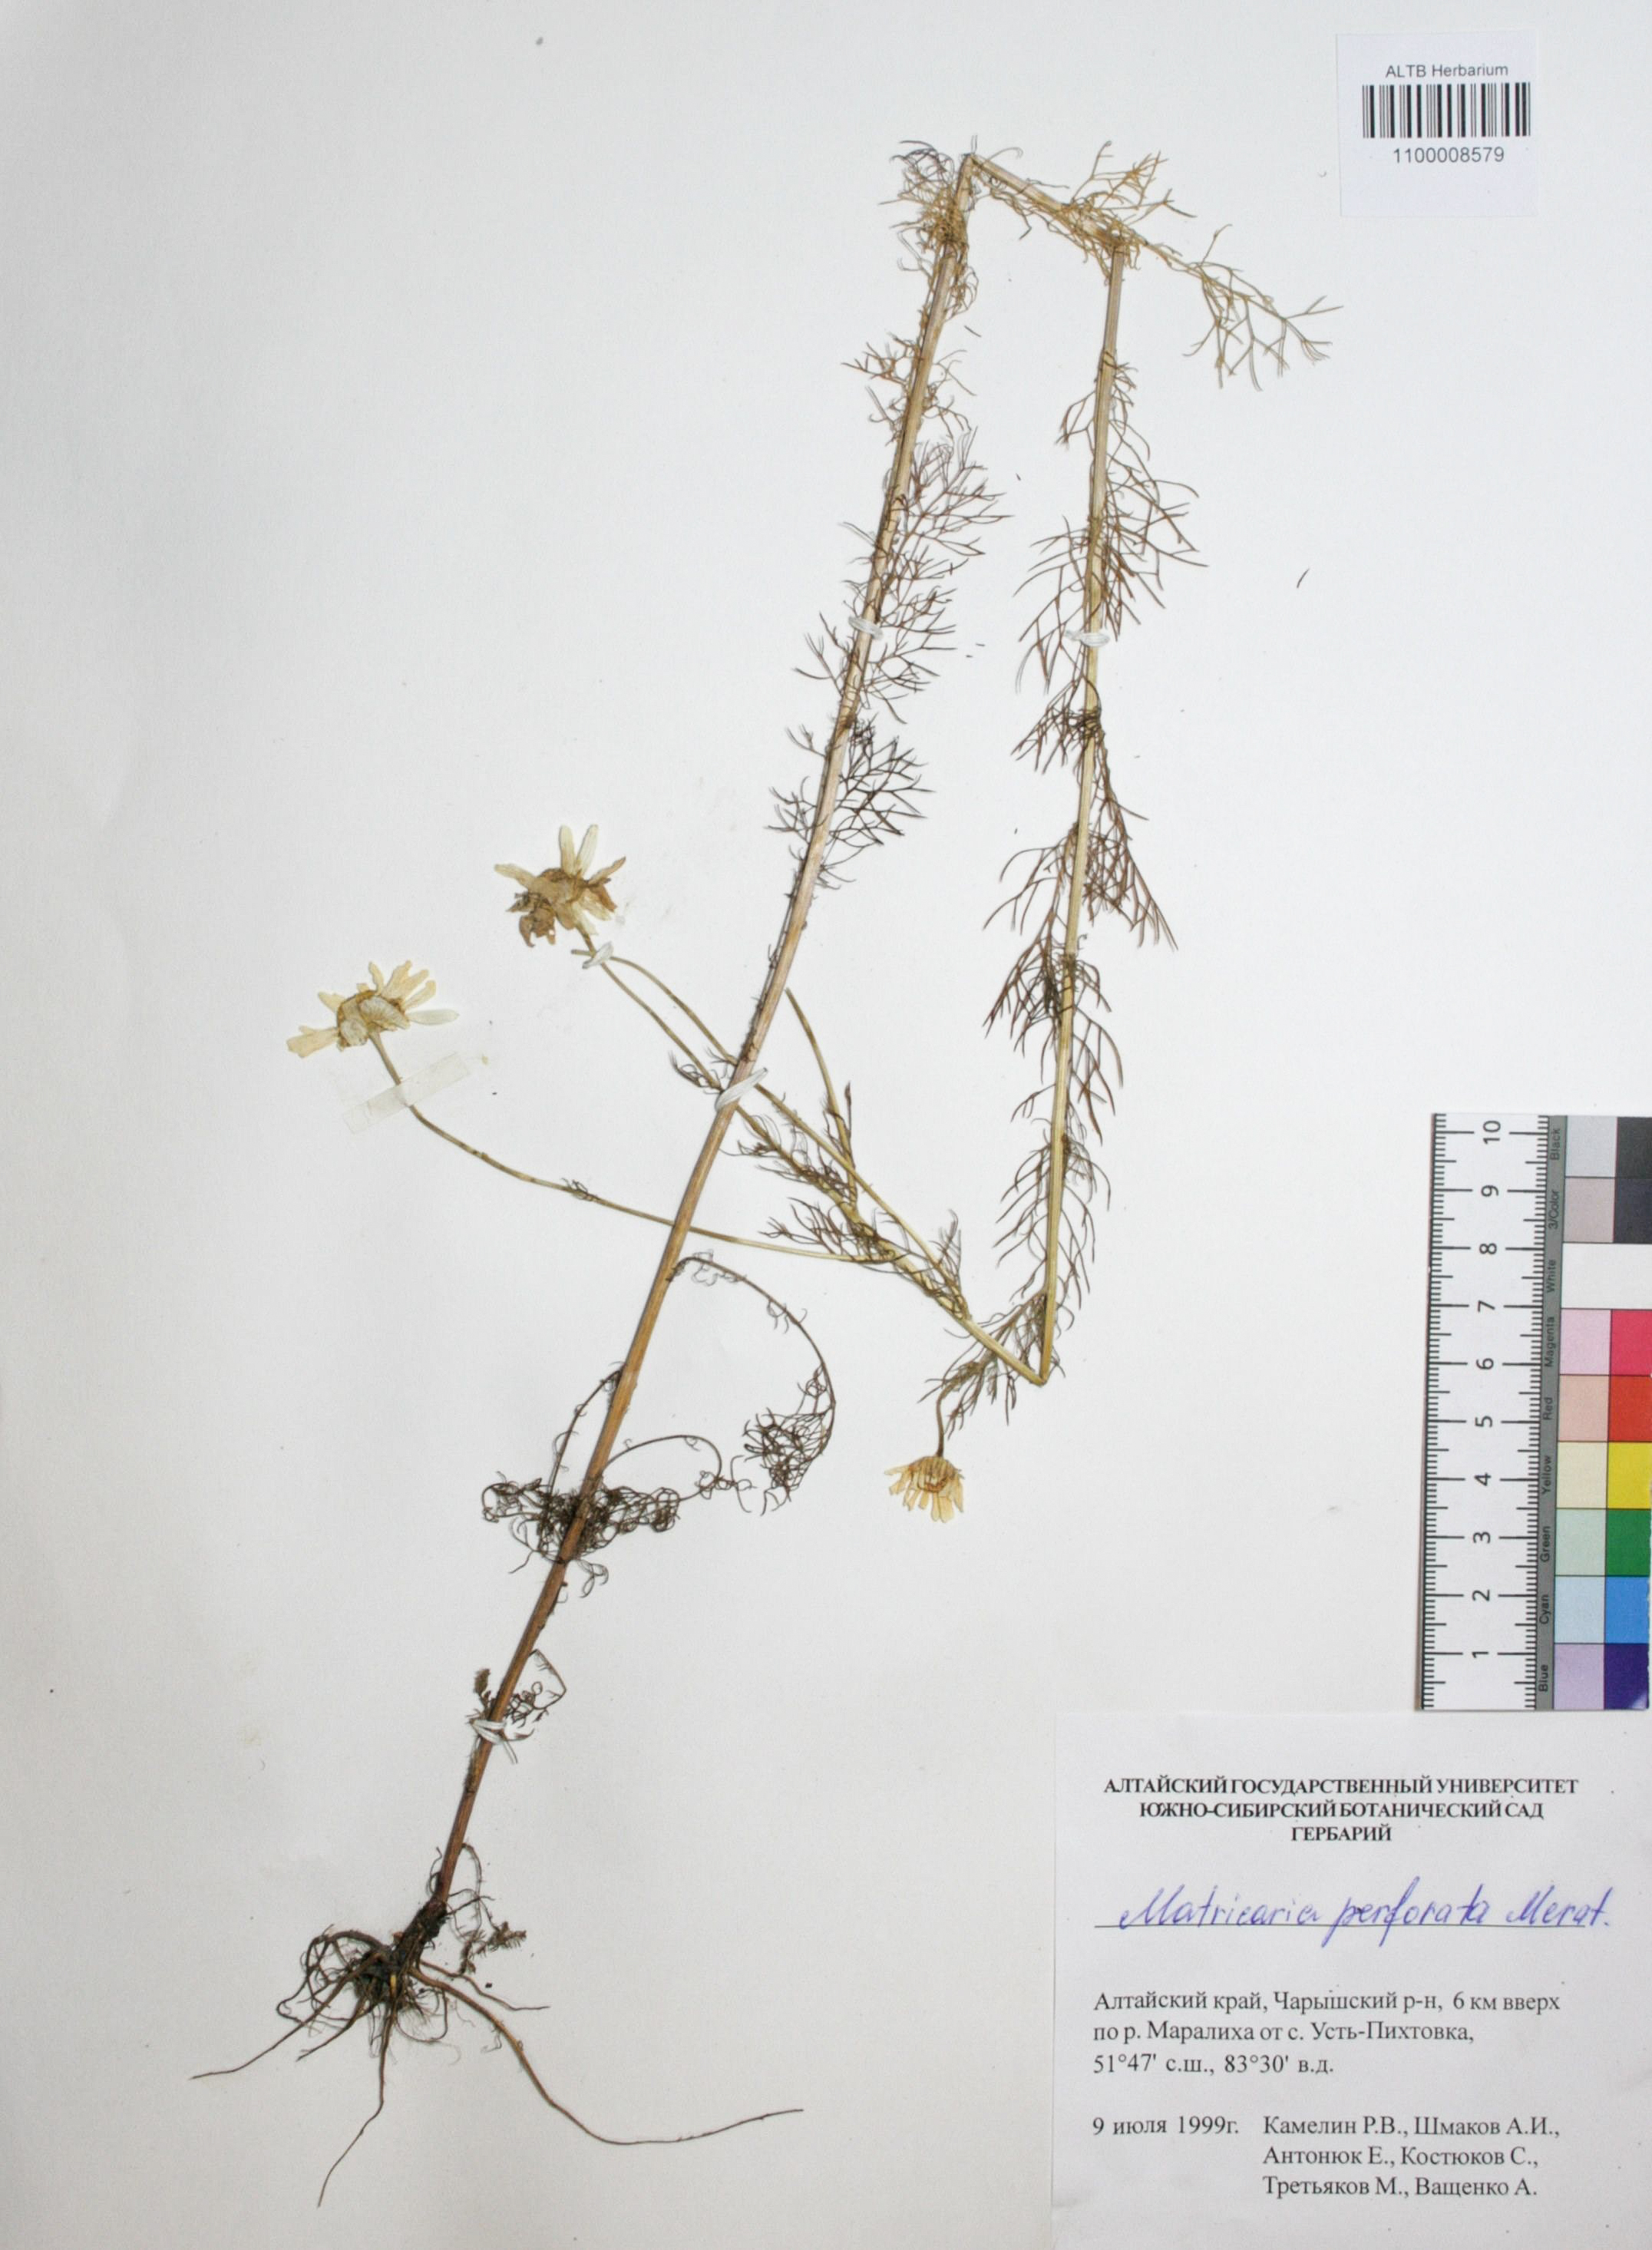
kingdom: Plantae
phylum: Tracheophyta
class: Magnoliopsida
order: Asterales
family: Asteraceae
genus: Tripleurospermum
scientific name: Tripleurospermum inodorum
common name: Scentless mayweed
